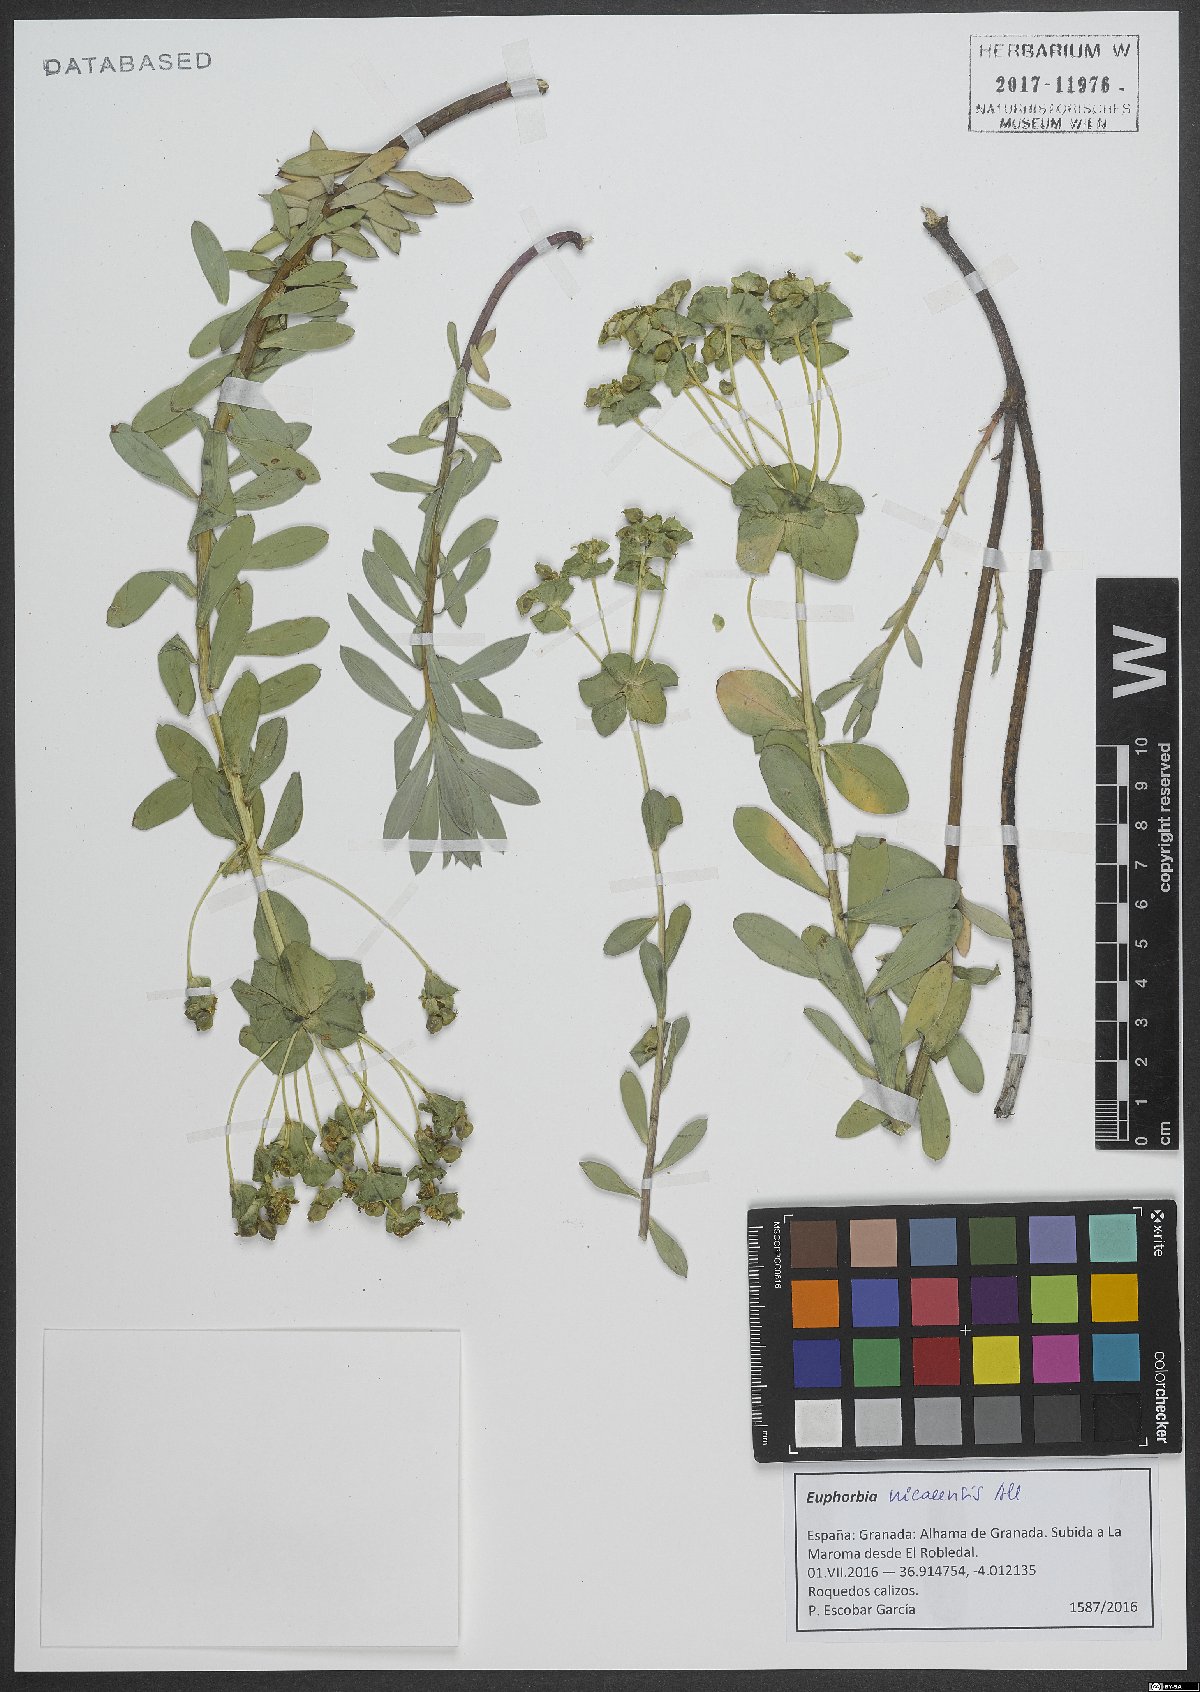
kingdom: Plantae
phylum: Tracheophyta
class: Magnoliopsida
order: Malpighiales
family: Euphorbiaceae
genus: Euphorbia
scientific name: Euphorbia nicaeensis
